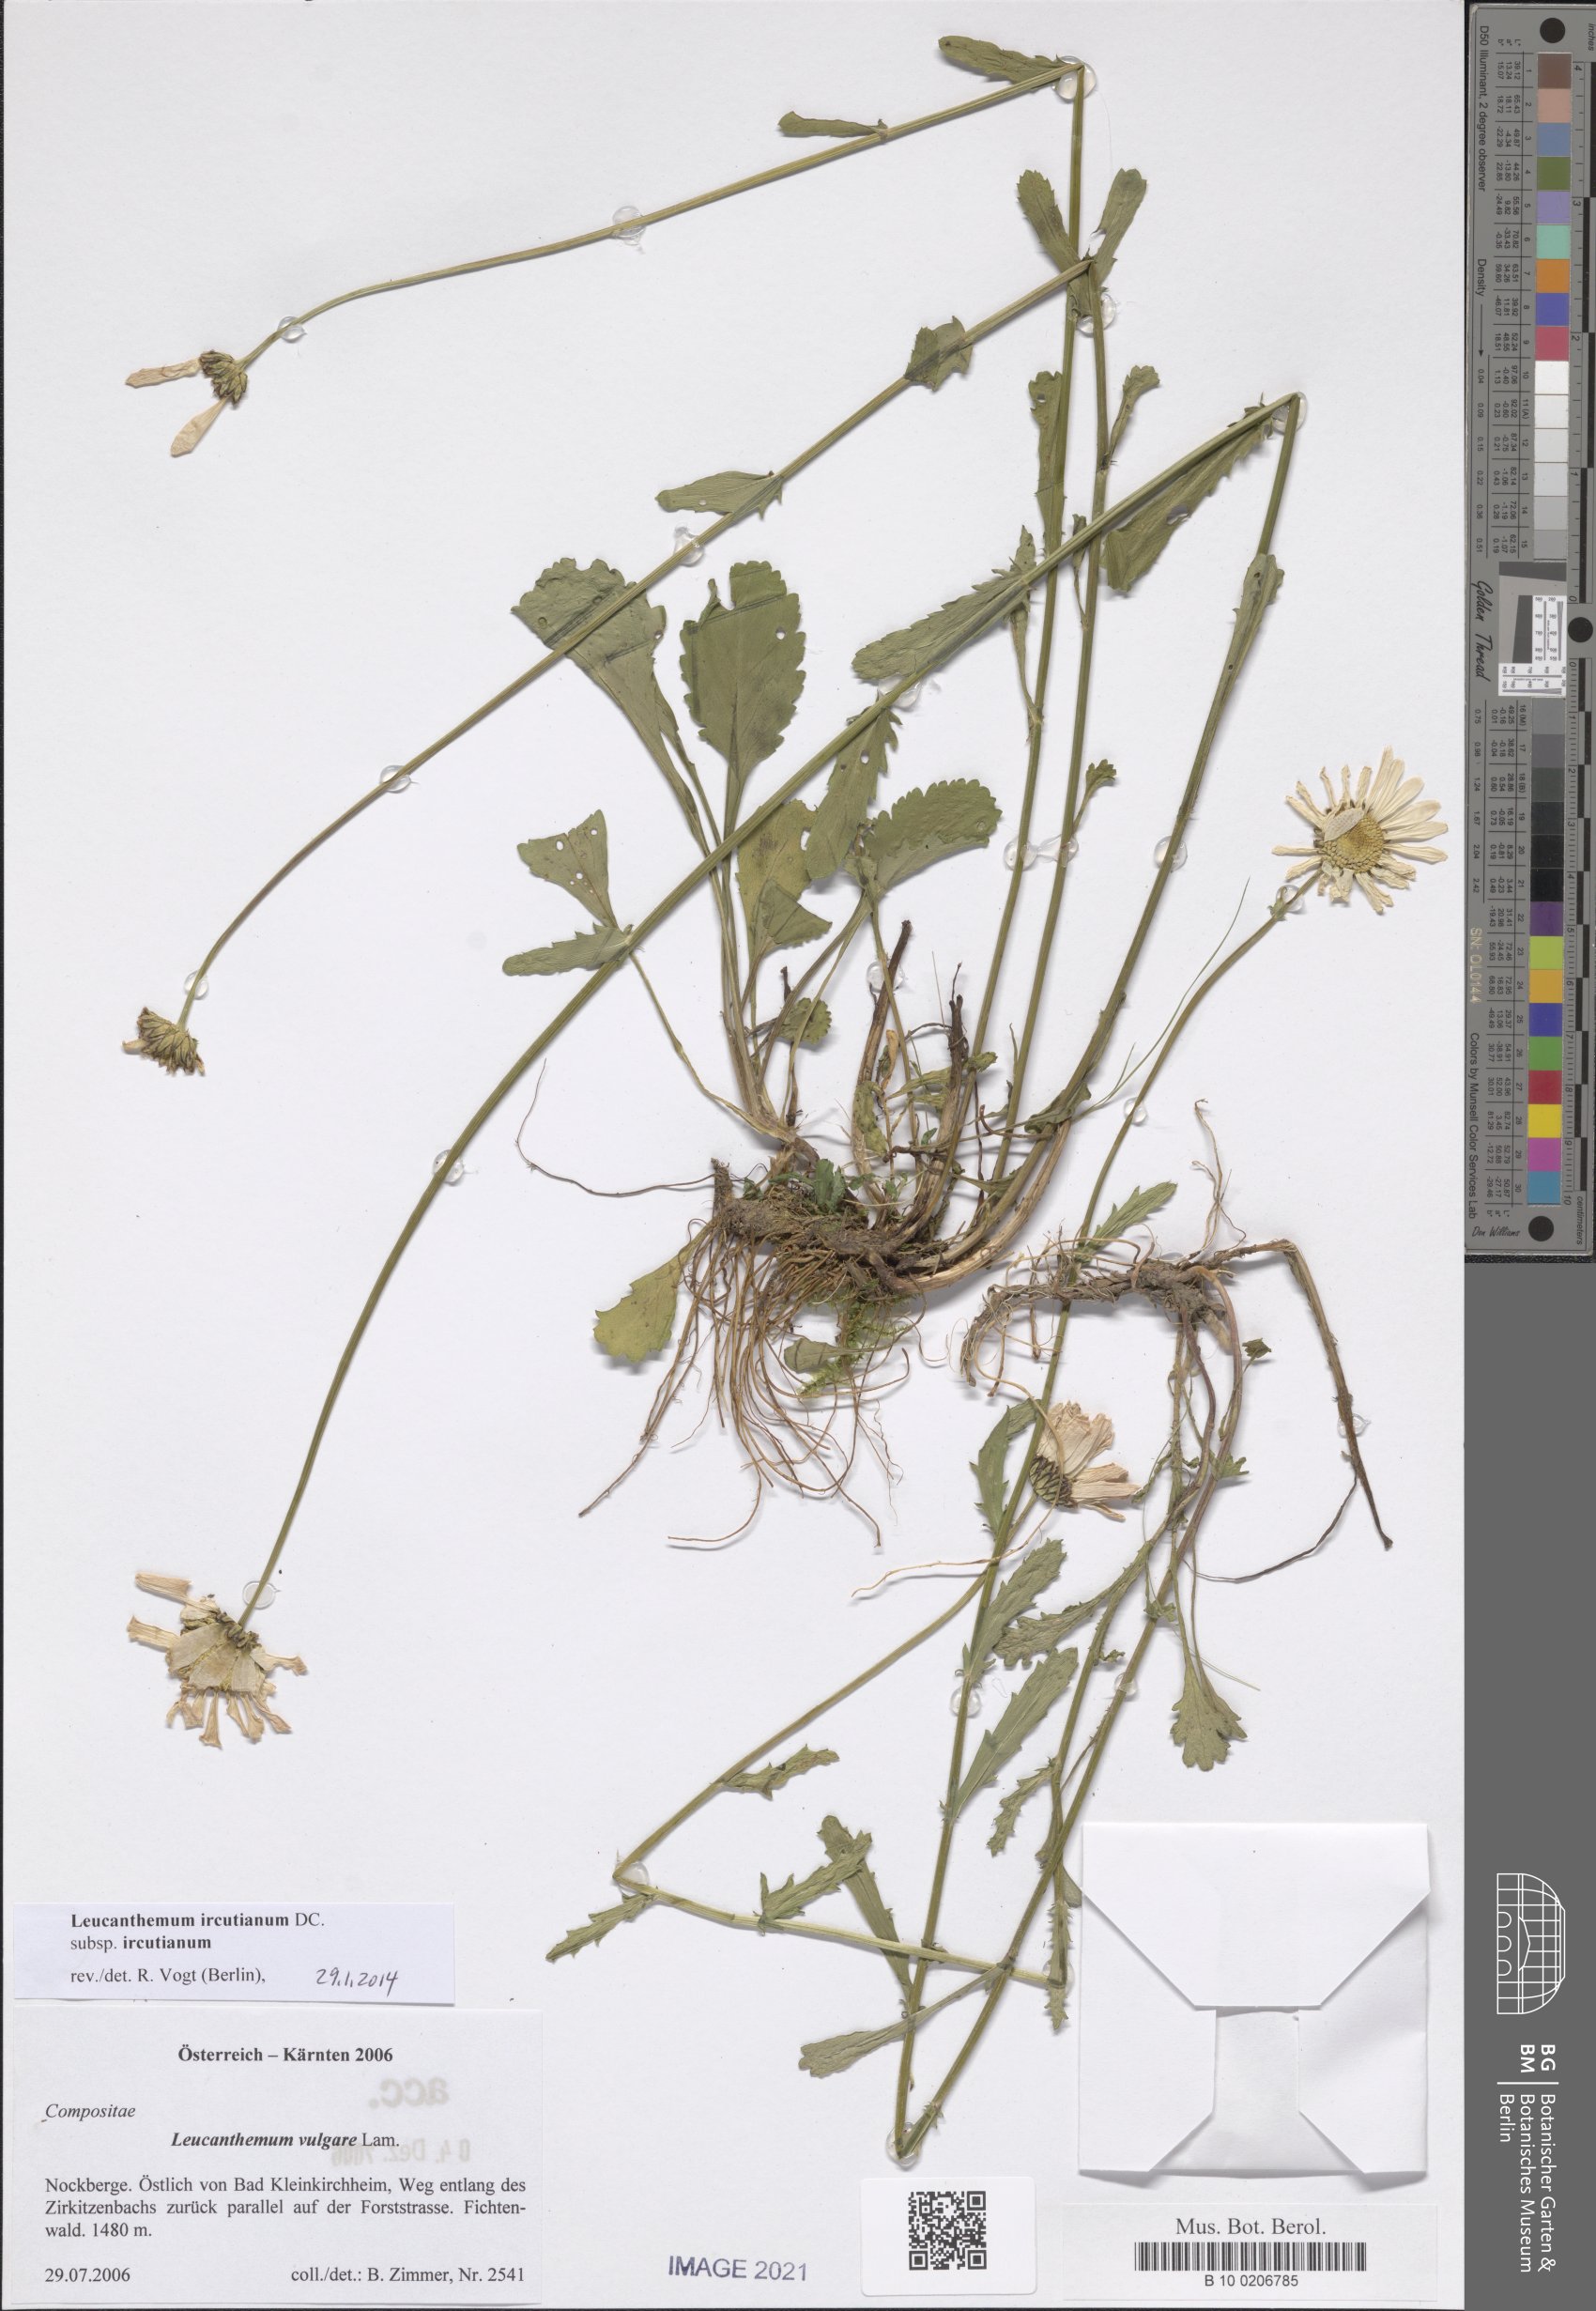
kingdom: Plantae
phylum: Tracheophyta
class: Magnoliopsida
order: Asterales
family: Asteraceae
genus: Leucanthemum
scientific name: Leucanthemum ircutianum
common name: Daisy
